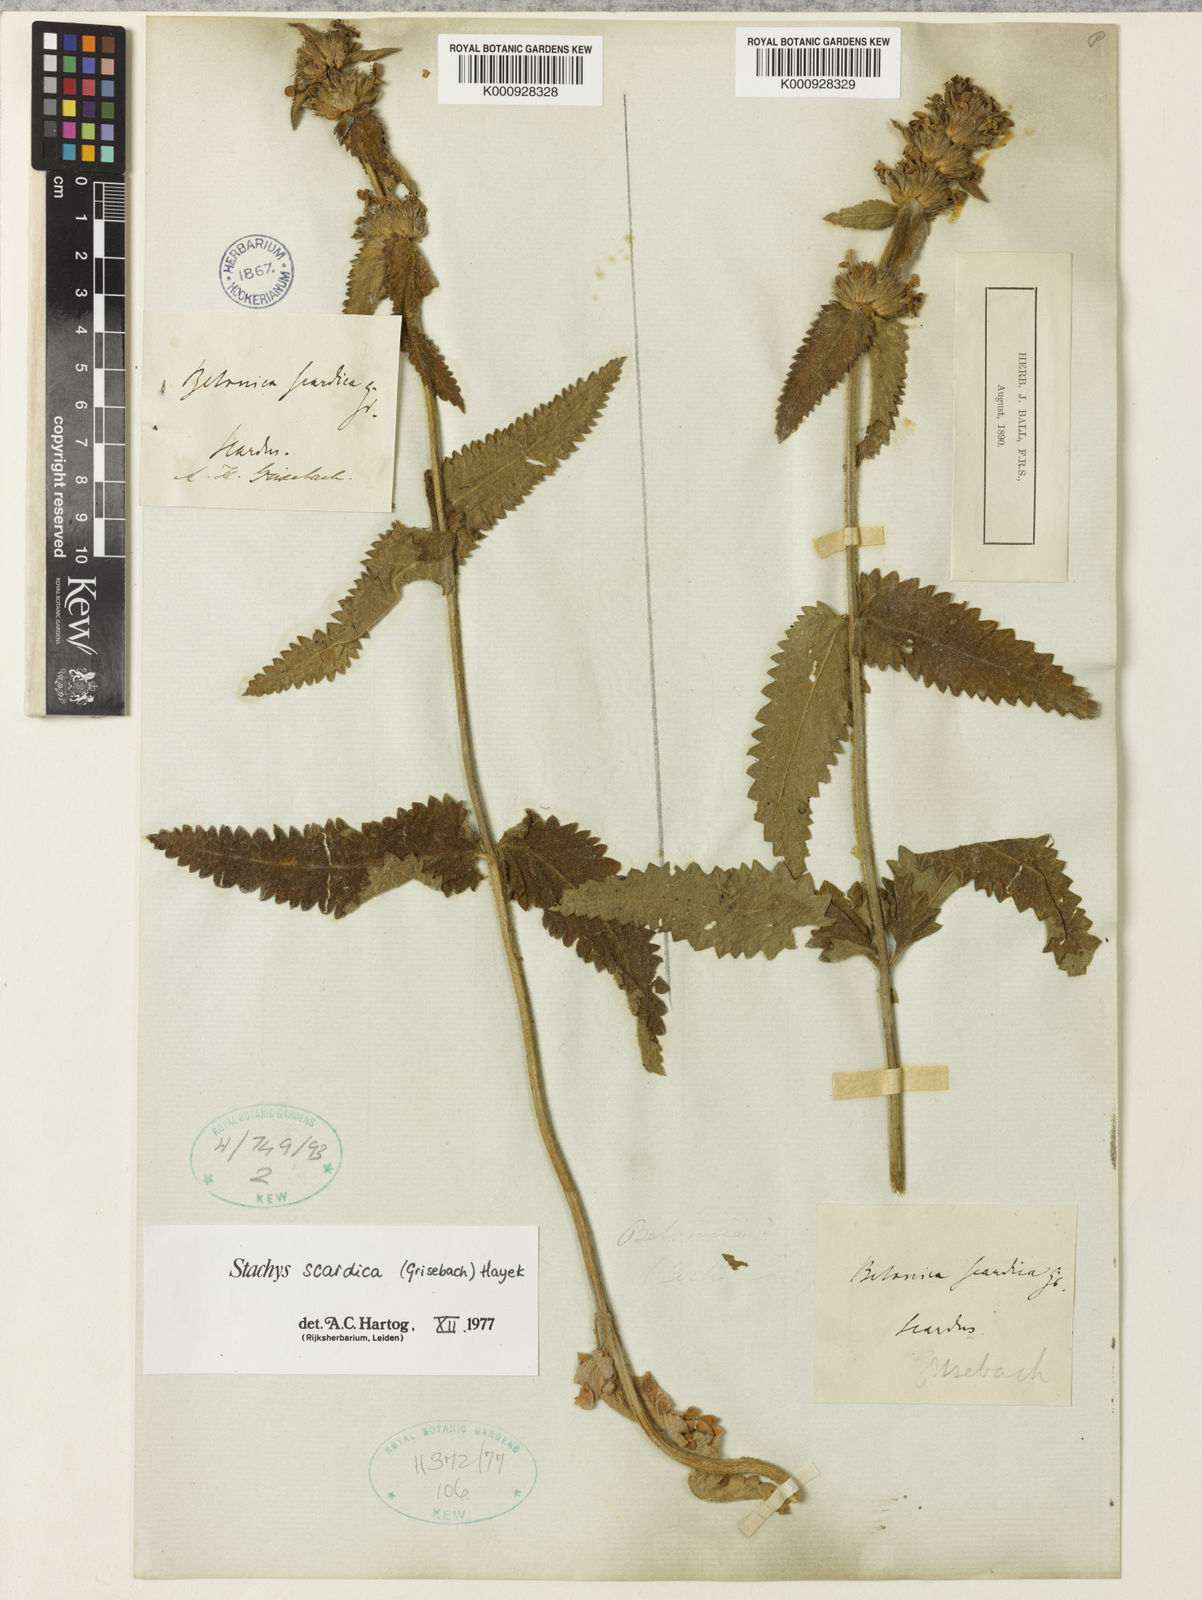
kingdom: Plantae
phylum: Tracheophyta
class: Magnoliopsida
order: Lamiales
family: Lamiaceae
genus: Stachys
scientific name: Stachys
